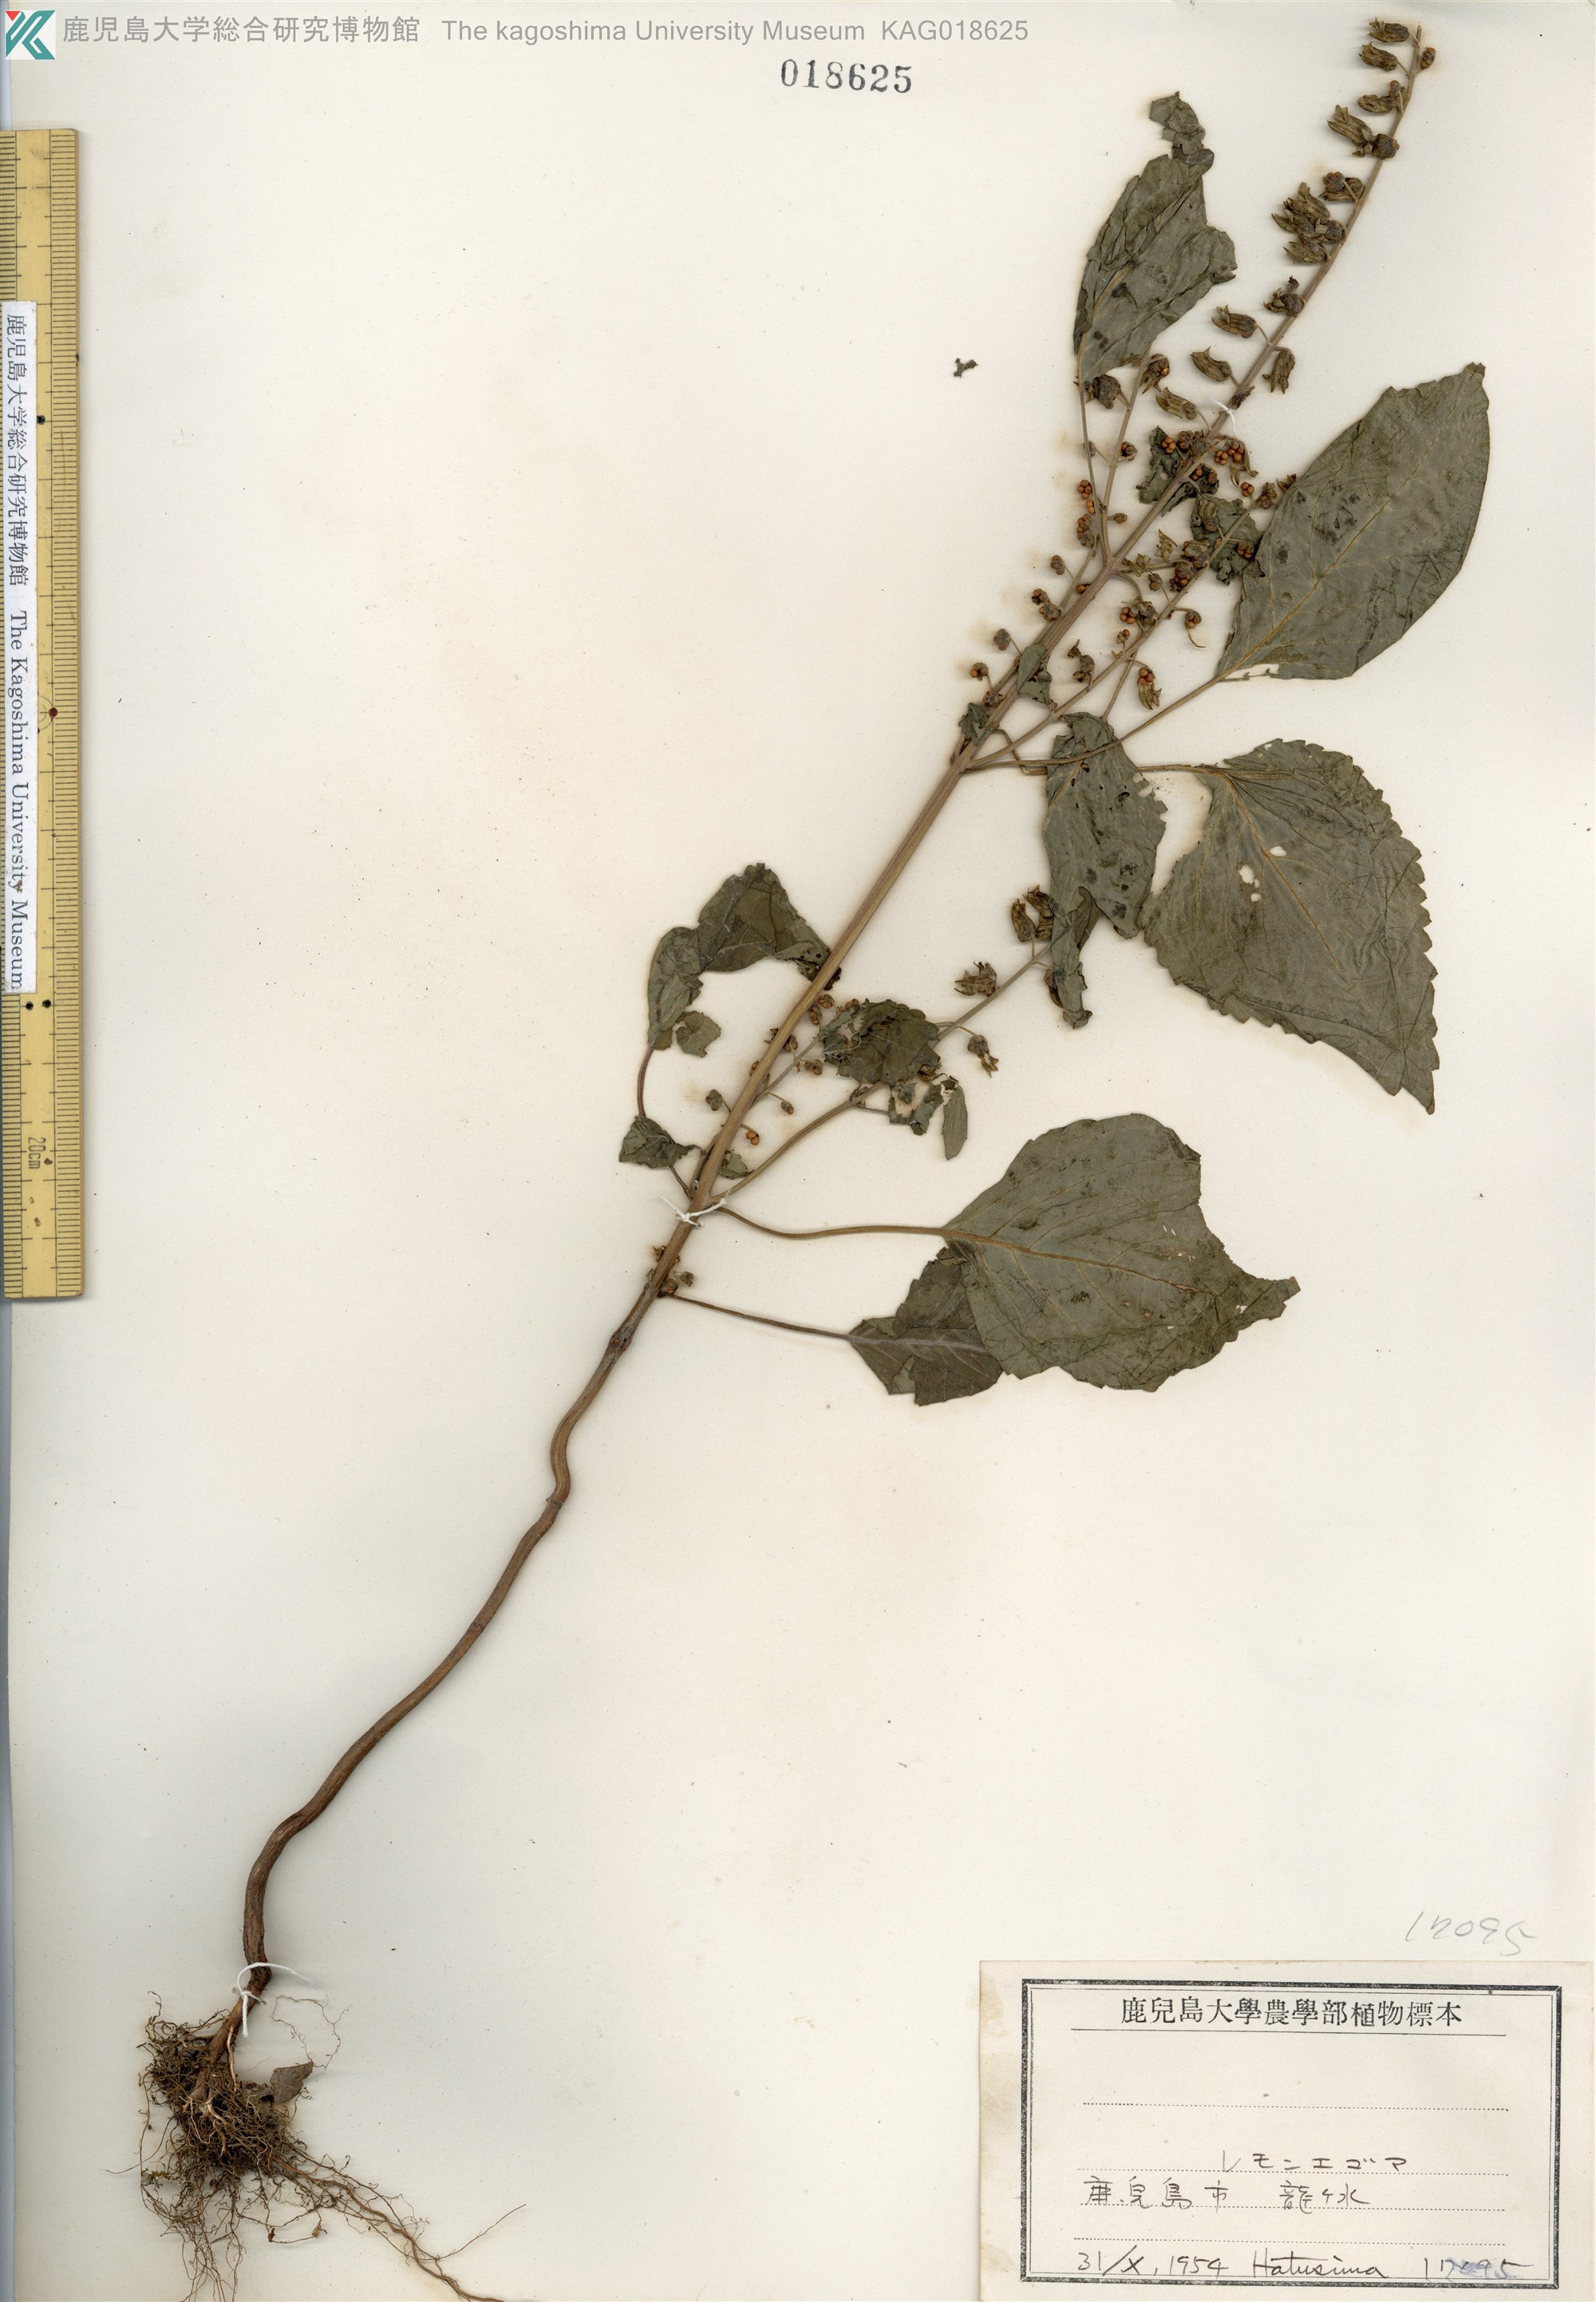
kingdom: Plantae
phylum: Tracheophyta
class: Magnoliopsida
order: Lamiales
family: Lamiaceae
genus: Perilla
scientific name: Perilla frutescens
